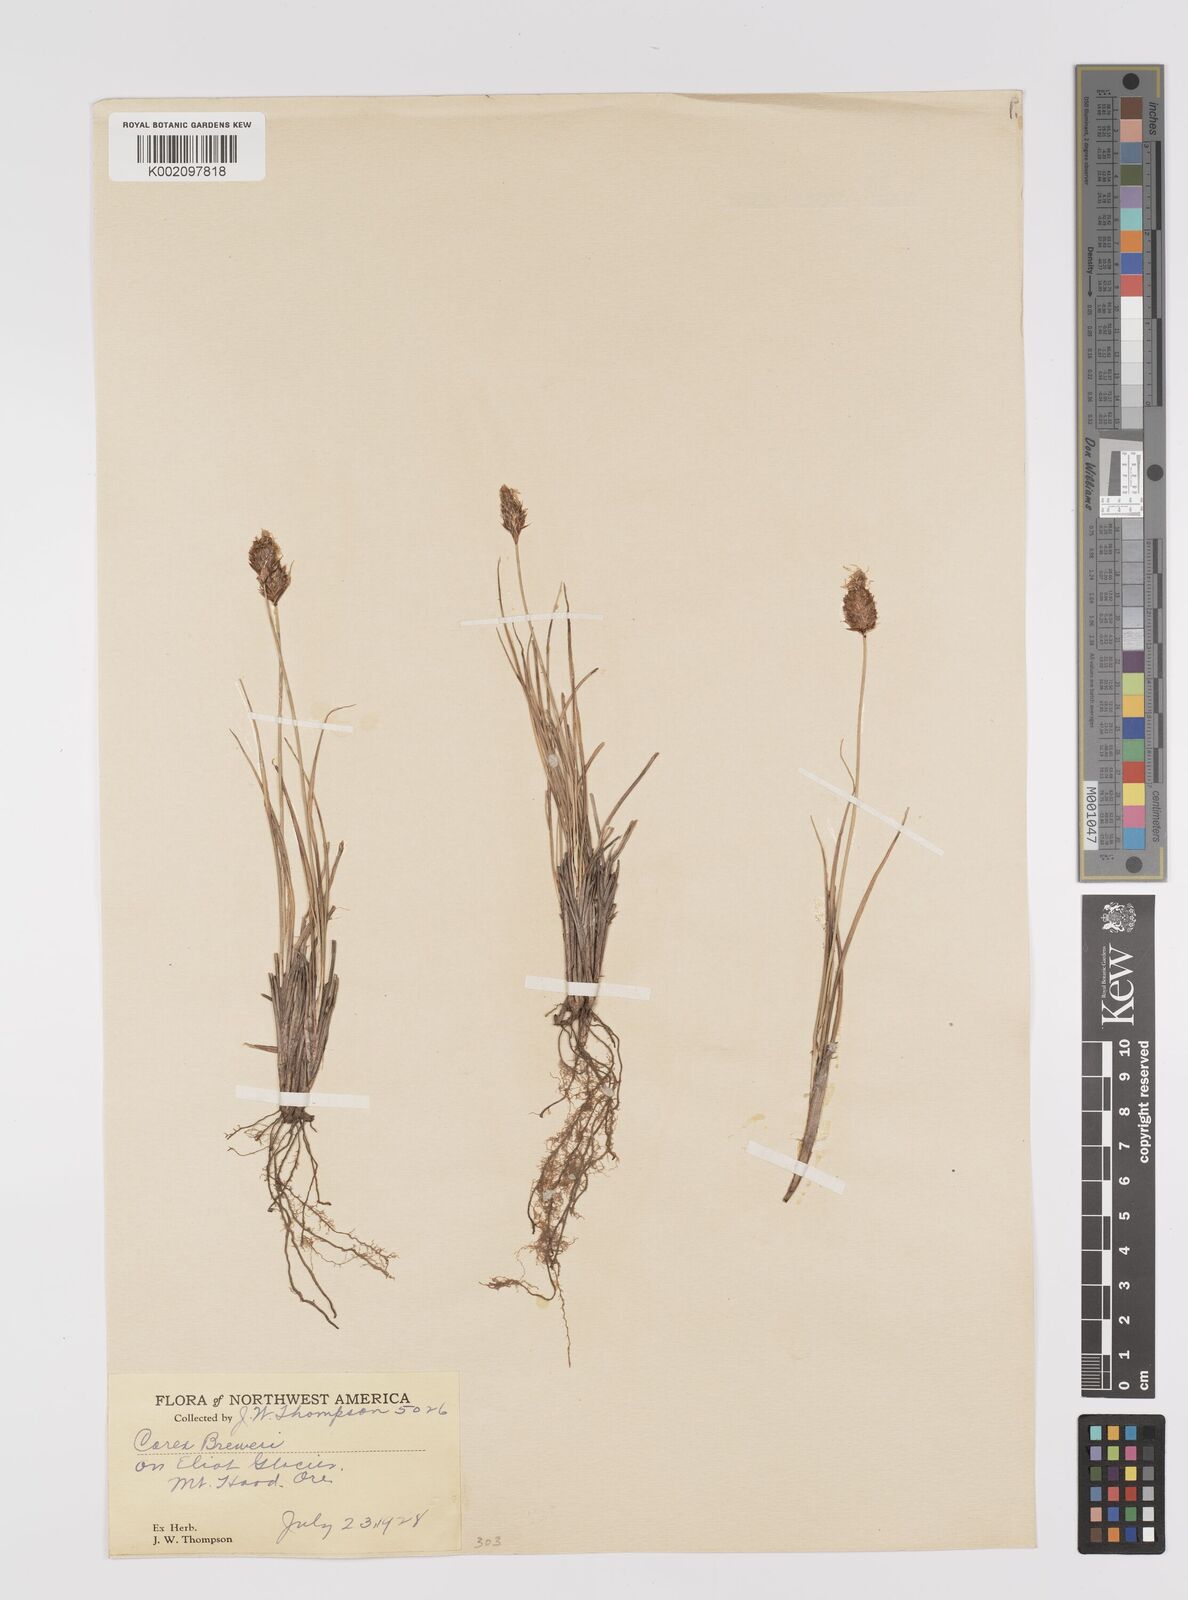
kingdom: Plantae
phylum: Tracheophyta
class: Liliopsida
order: Poales
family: Cyperaceae
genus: Carex
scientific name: Carex breweri
